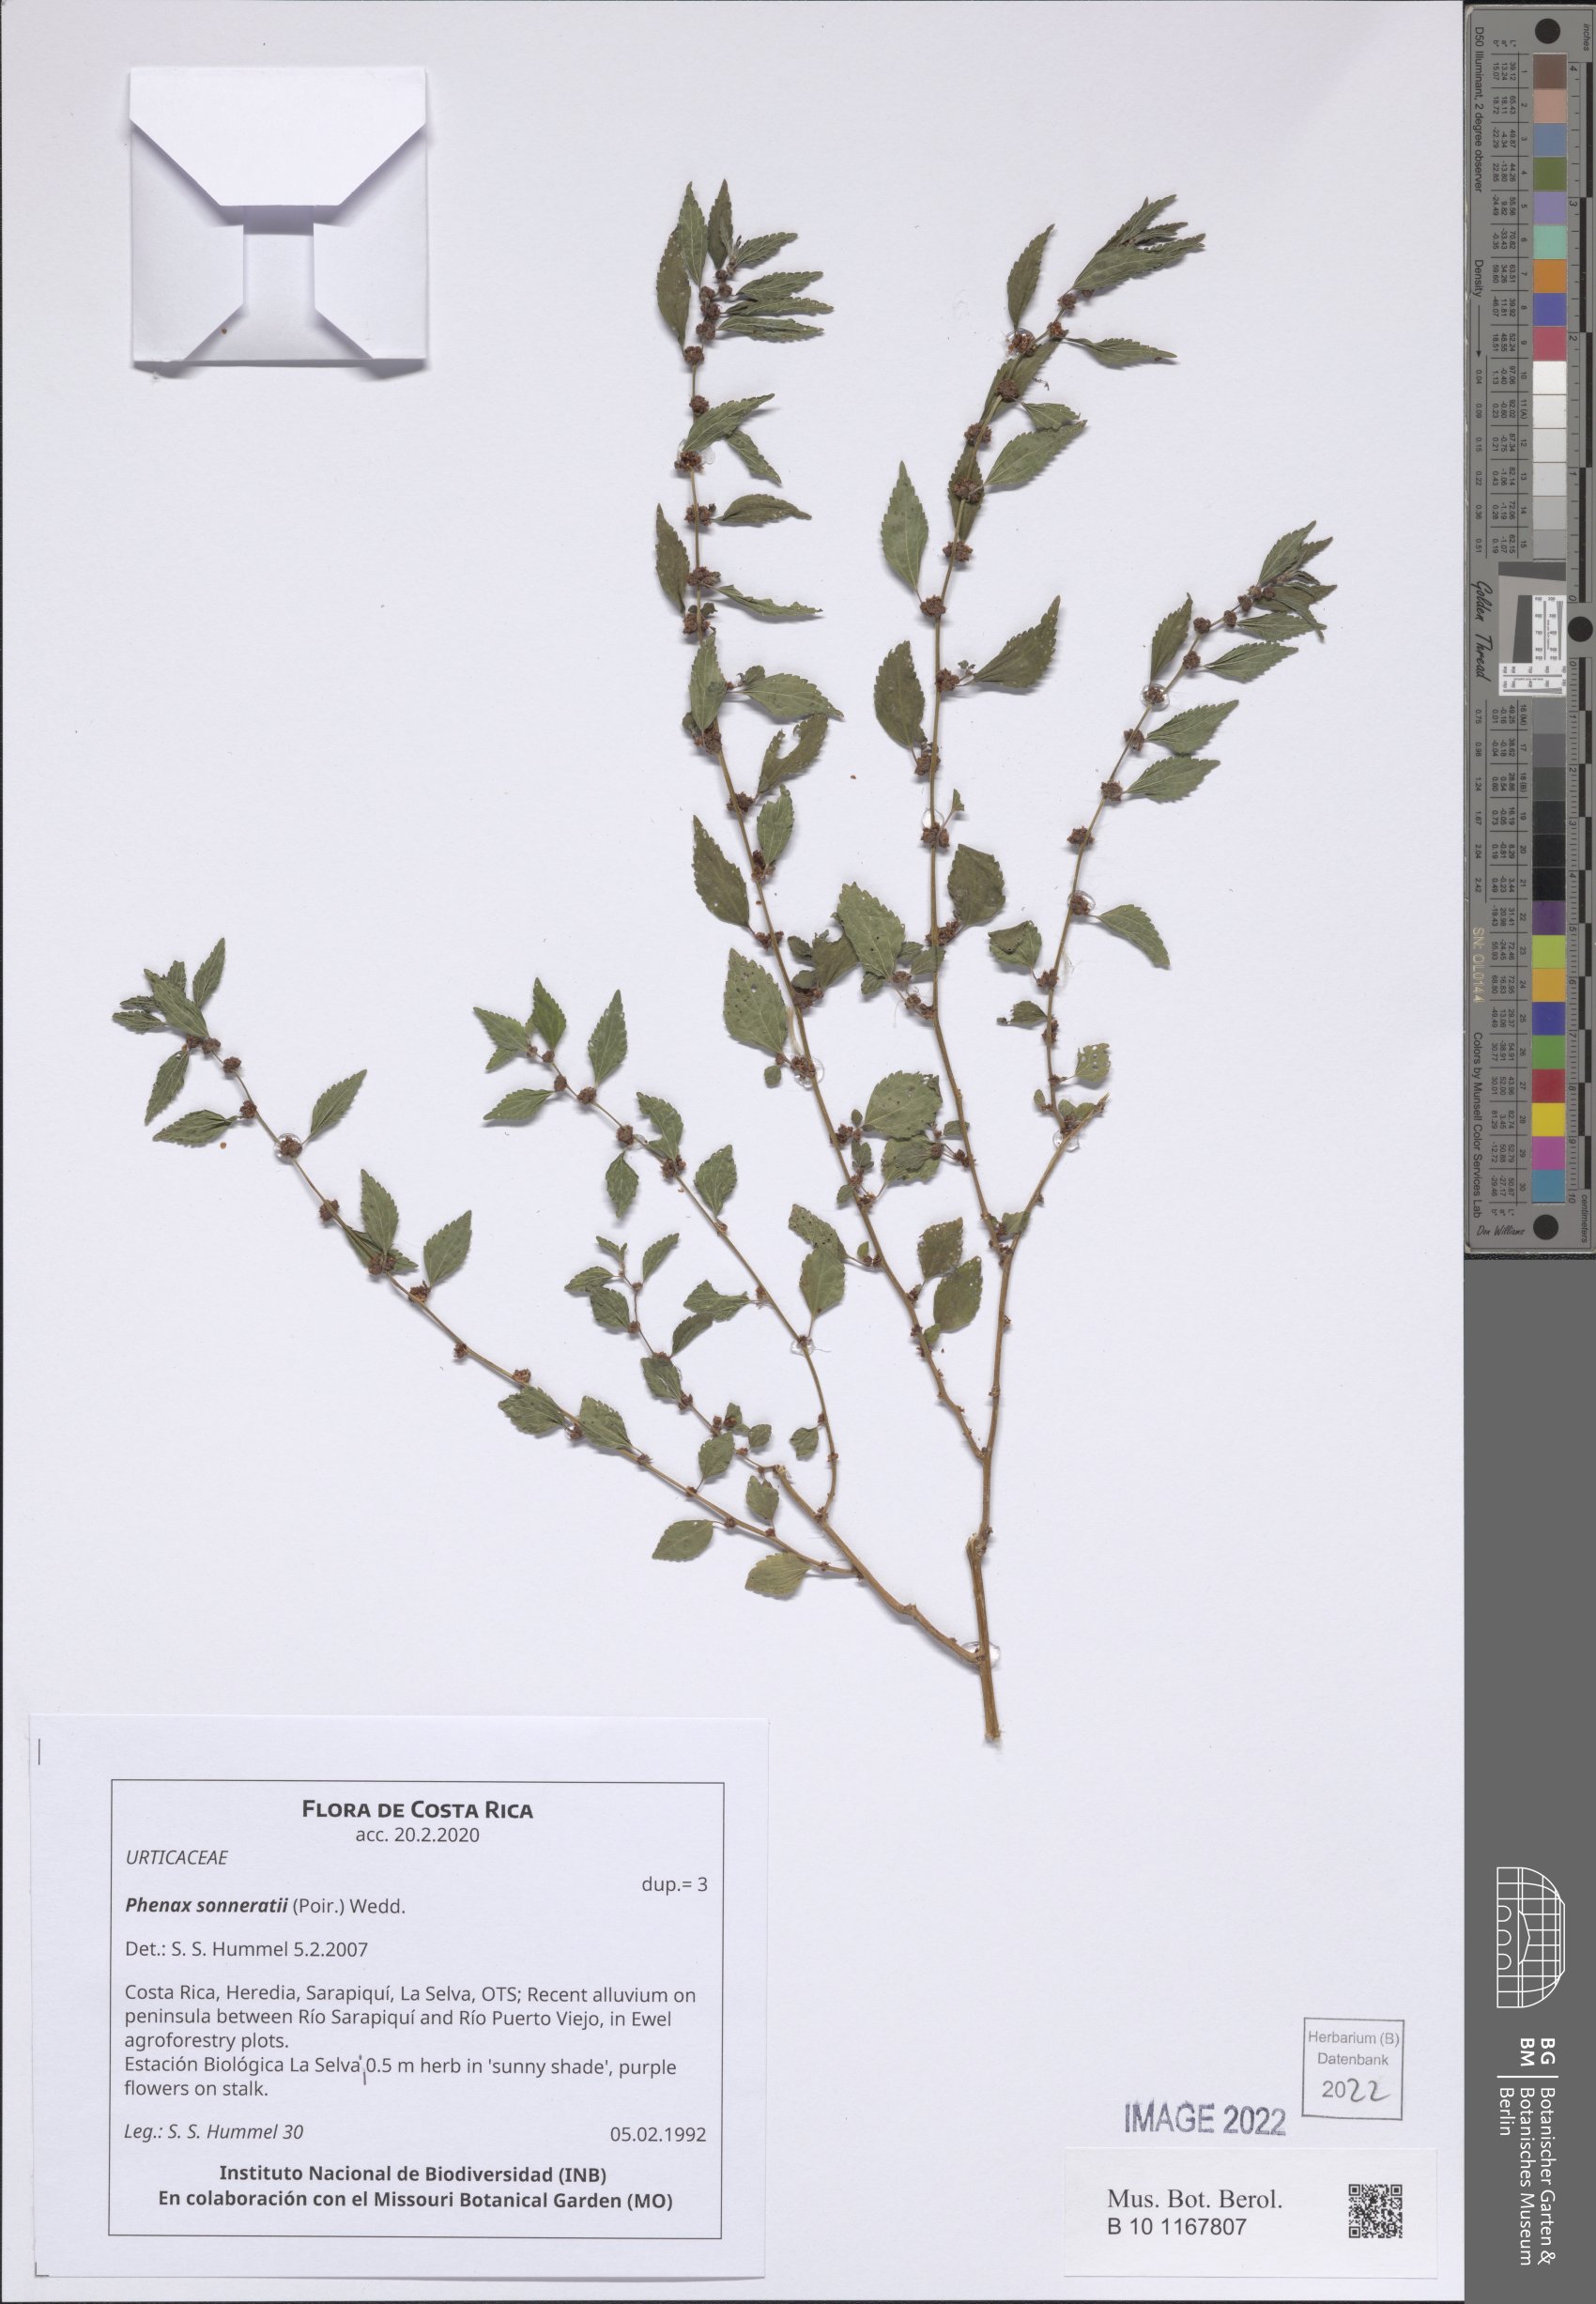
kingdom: Plantae
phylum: Tracheophyta
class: Magnoliopsida
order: Rosales
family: Urticaceae
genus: Phenax
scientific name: Phenax sonneratii
